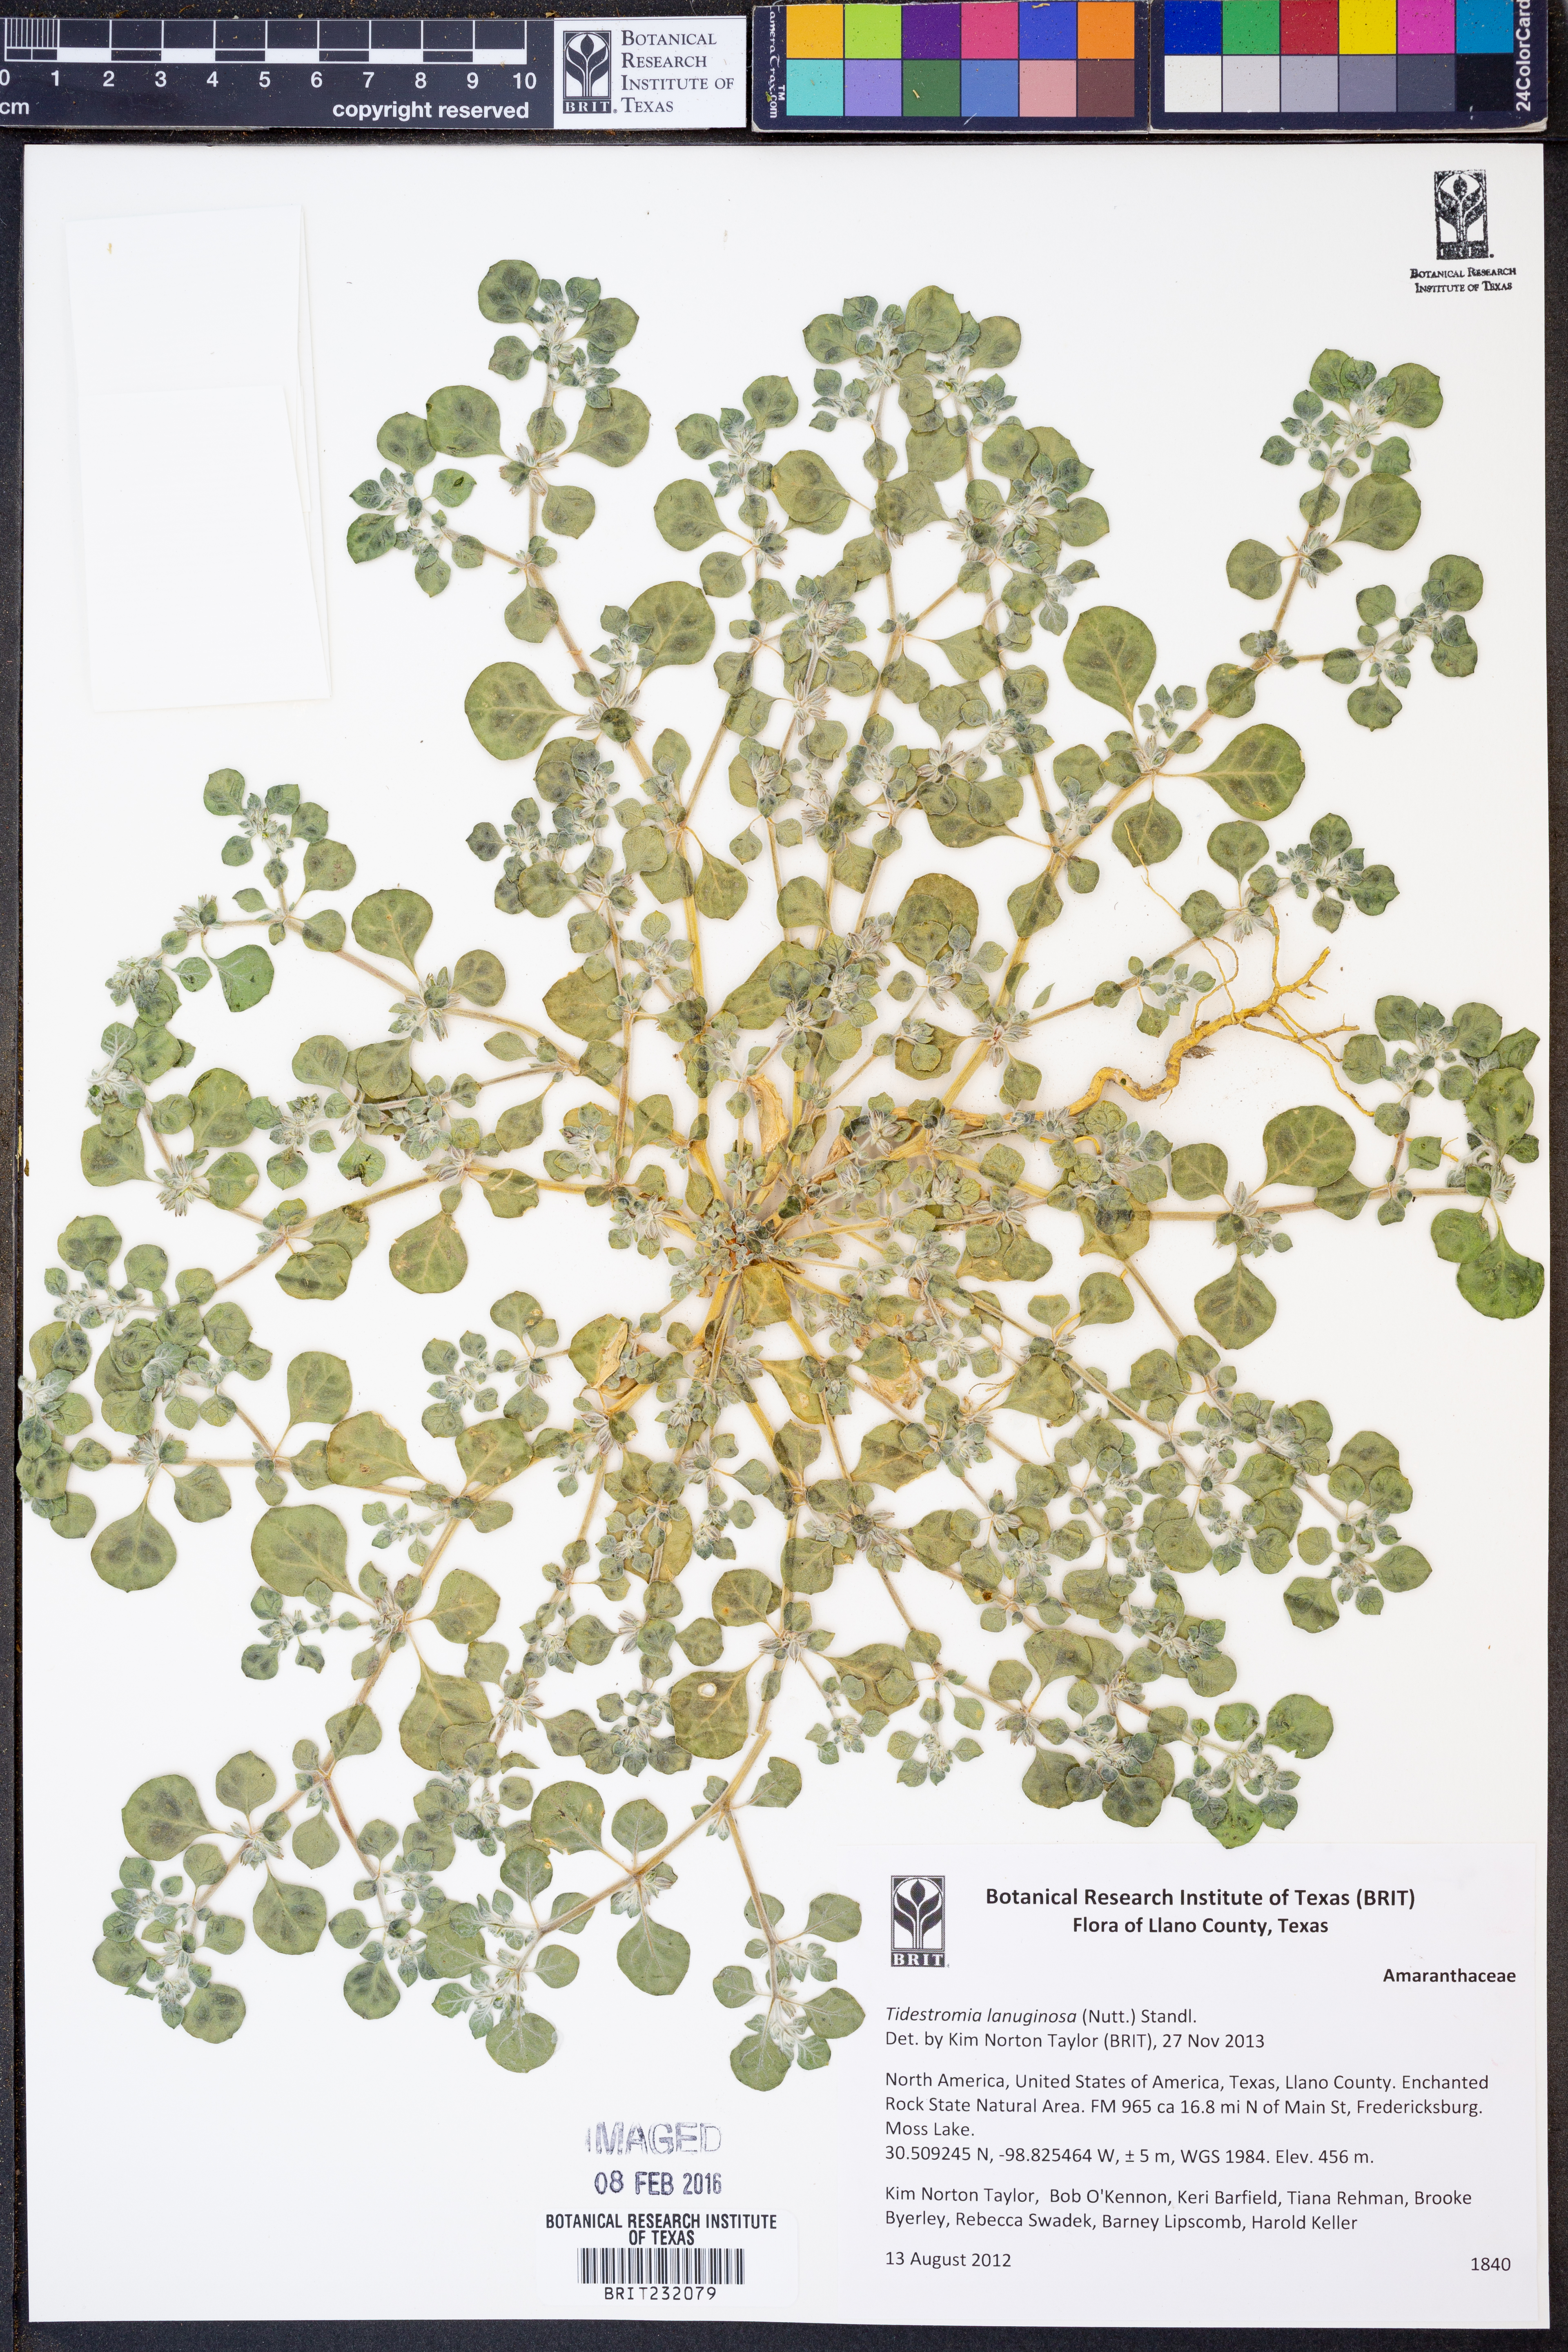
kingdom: Plantae
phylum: Tracheophyta
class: Magnoliopsida
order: Caryophyllales
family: Amaranthaceae
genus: Tidestromia
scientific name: Tidestromia lanuginosa
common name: Woolly tidestromia
